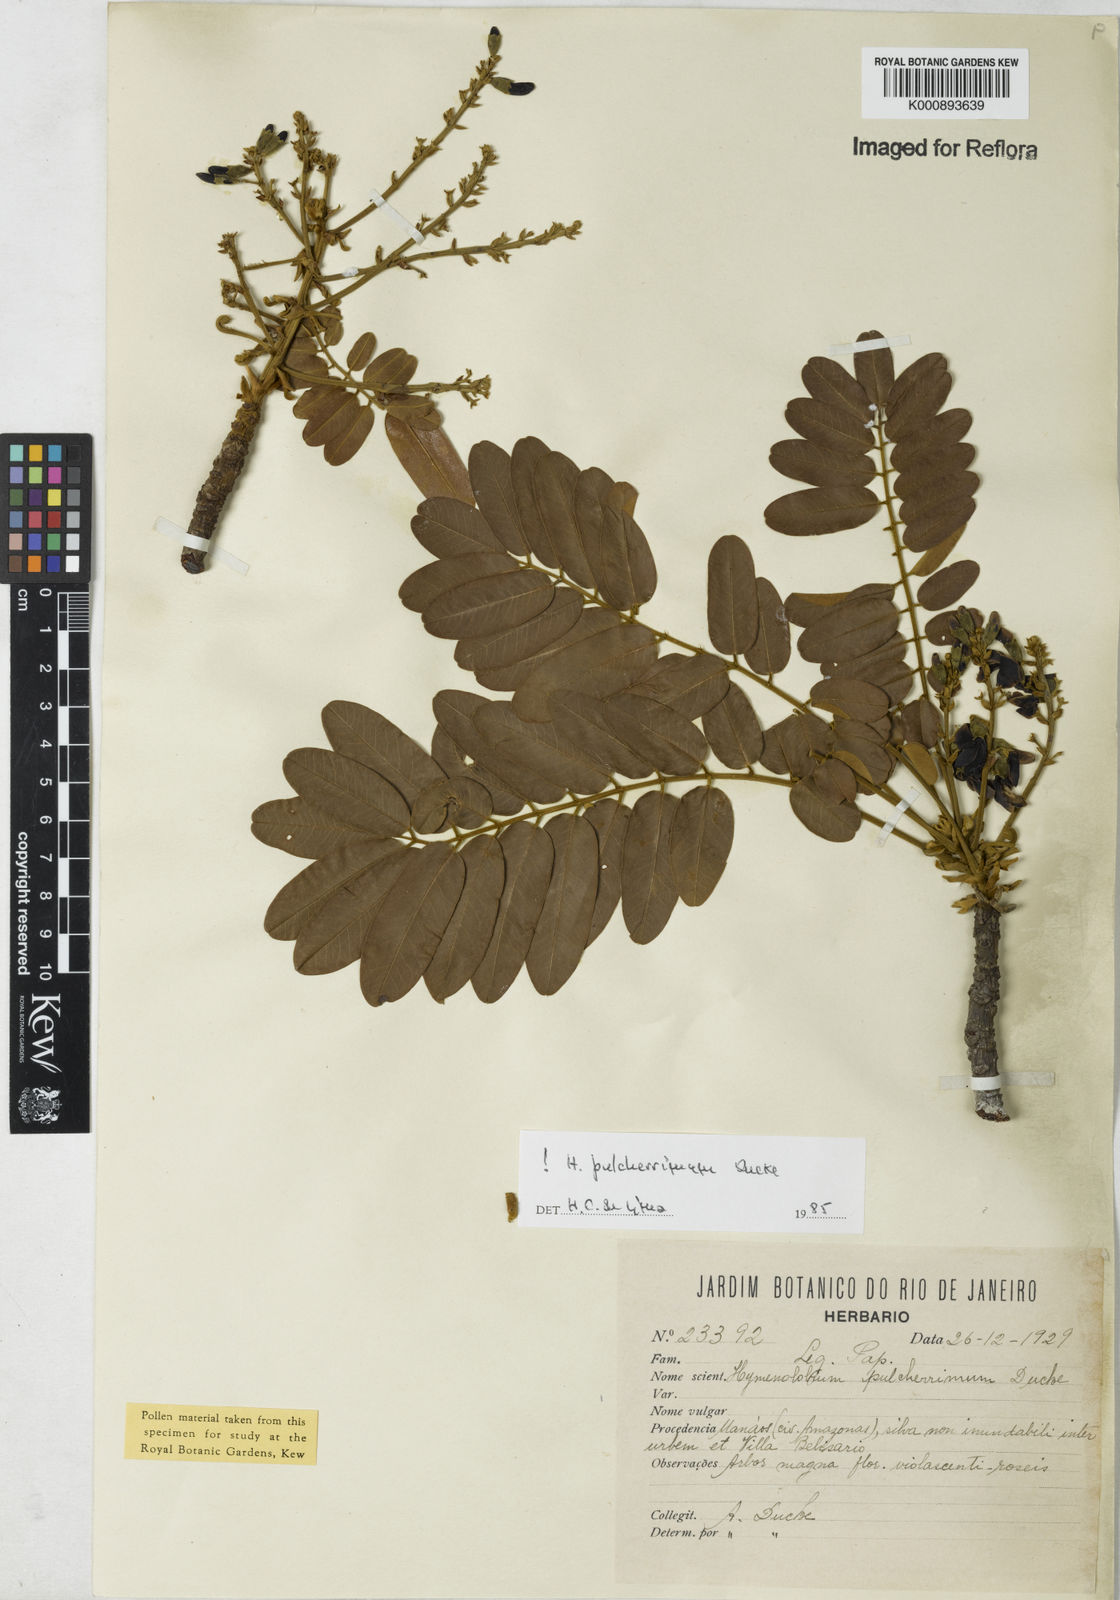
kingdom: Plantae
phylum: Tracheophyta
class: Magnoliopsida
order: Fabales
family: Fabaceae
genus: Hymenolobium
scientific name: Hymenolobium pulcherrimum
